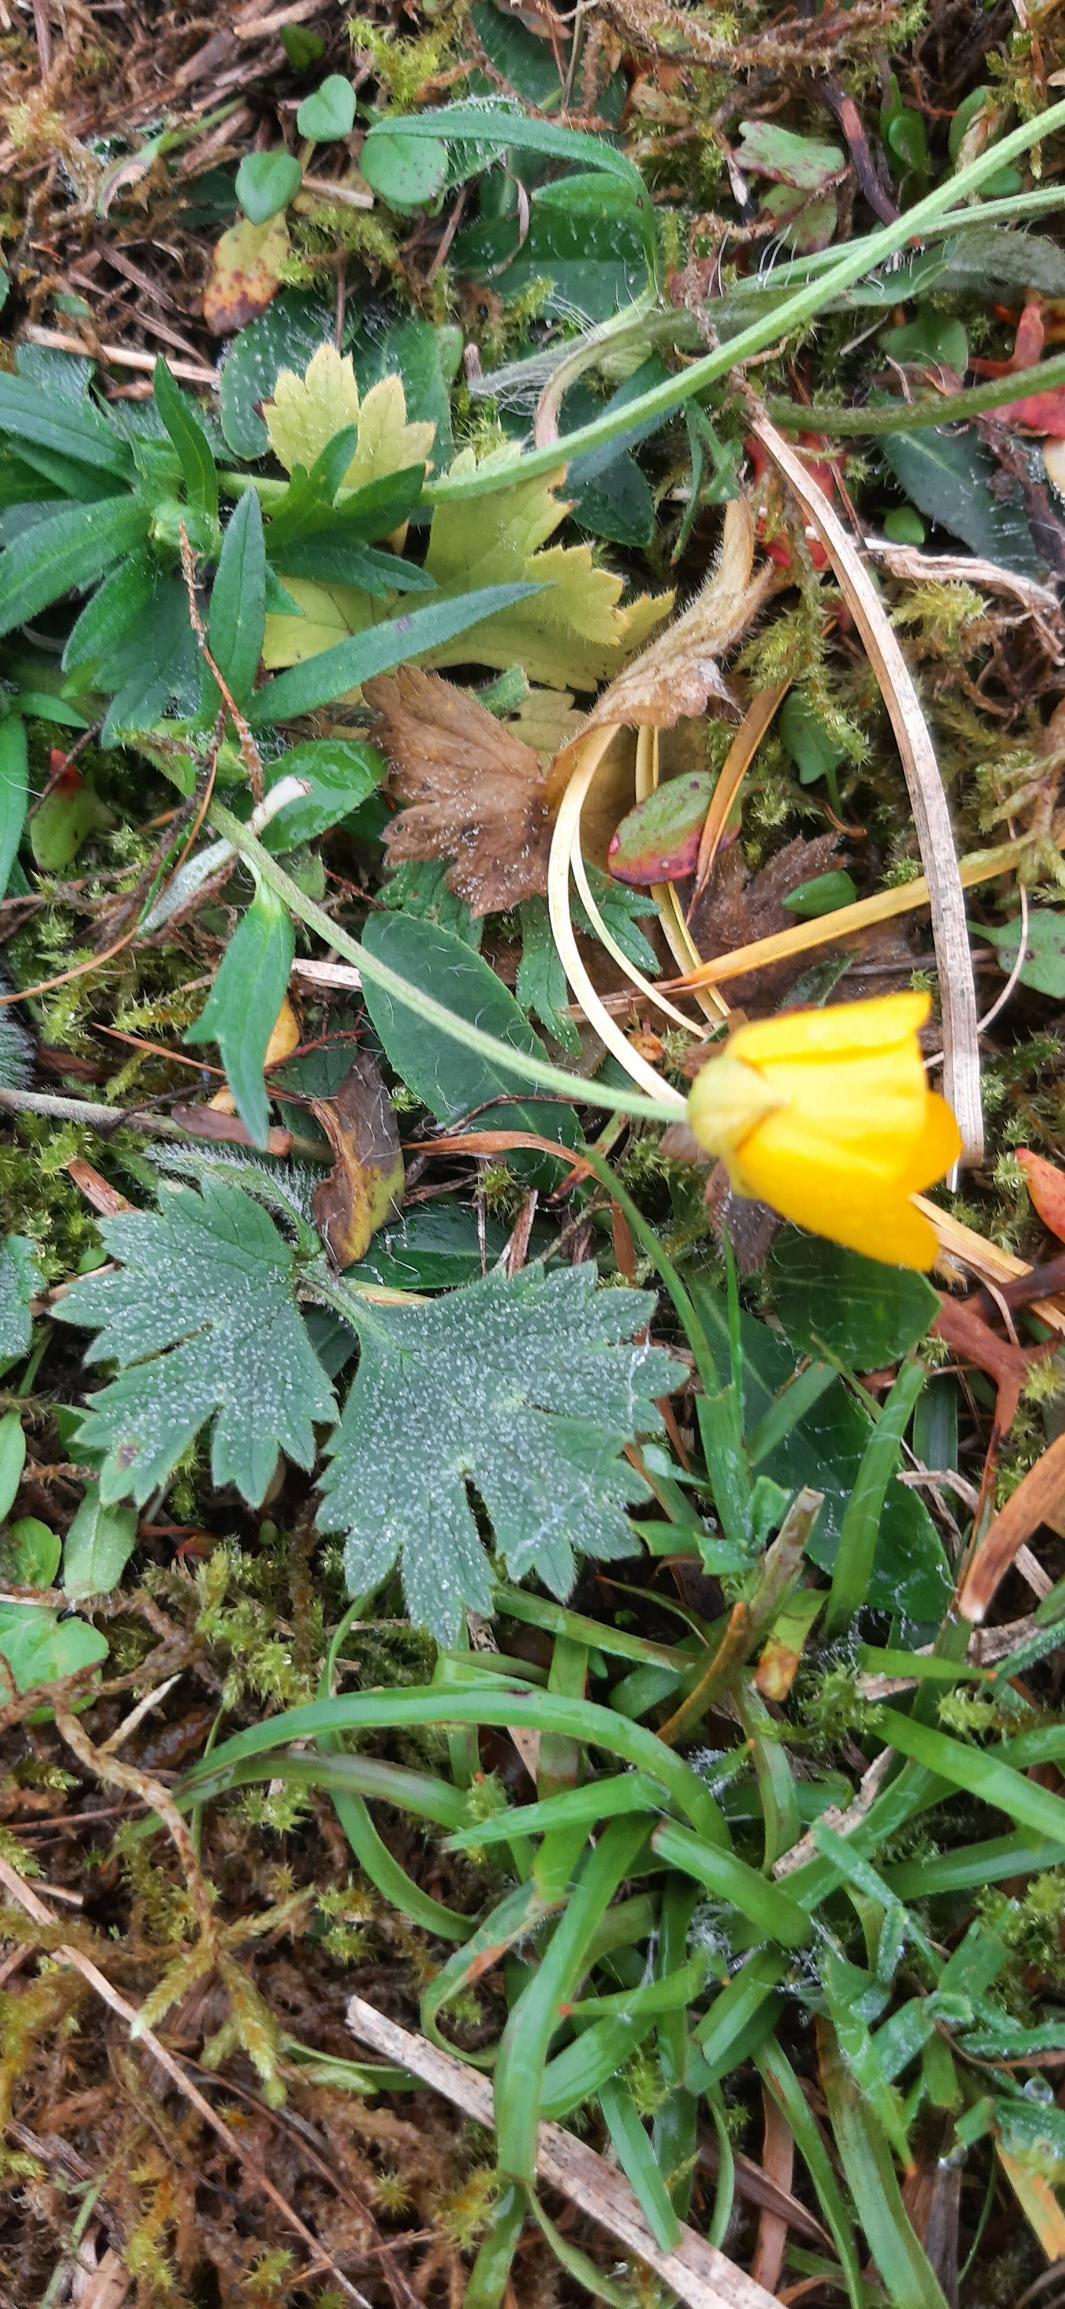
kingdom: Plantae
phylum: Tracheophyta
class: Magnoliopsida
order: Ranunculales
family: Ranunculaceae
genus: Ranunculus
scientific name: Ranunculus repens
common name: Lav ranunkel
